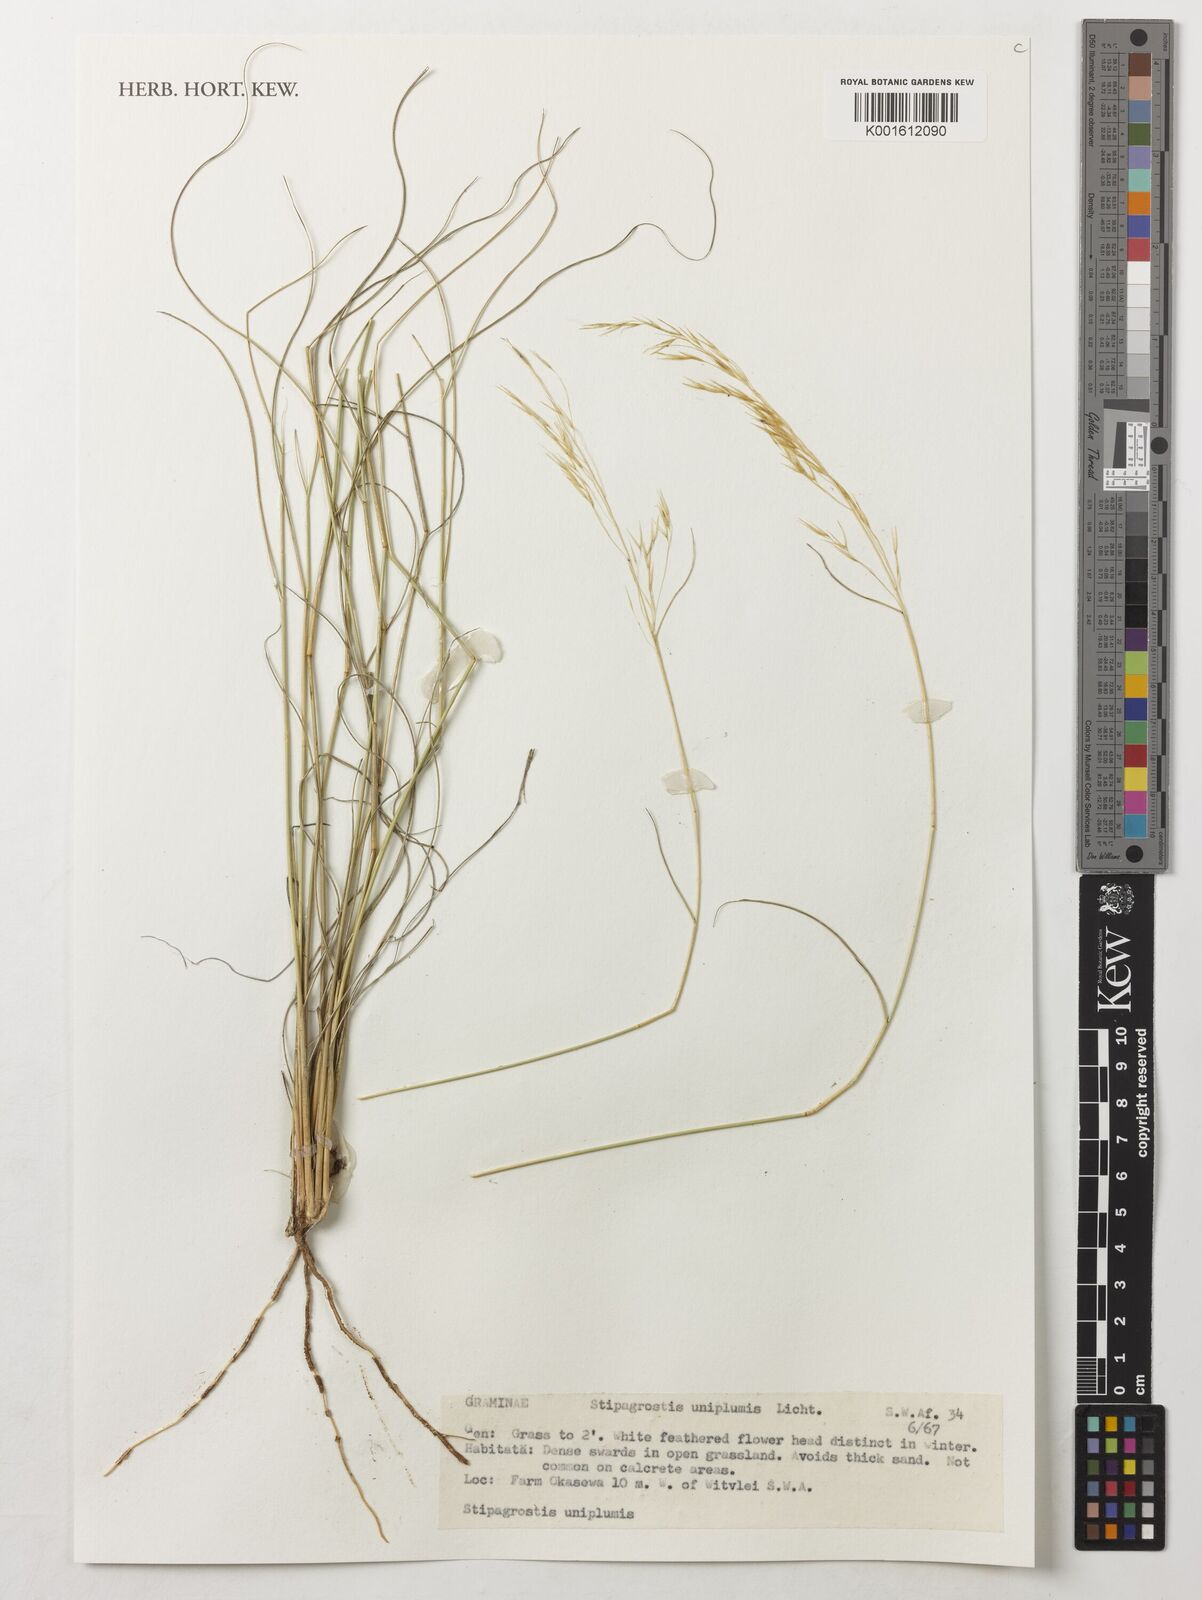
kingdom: Plantae
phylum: Tracheophyta
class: Liliopsida
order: Poales
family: Poaceae
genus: Stipagrostis
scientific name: Stipagrostis uniplumis
